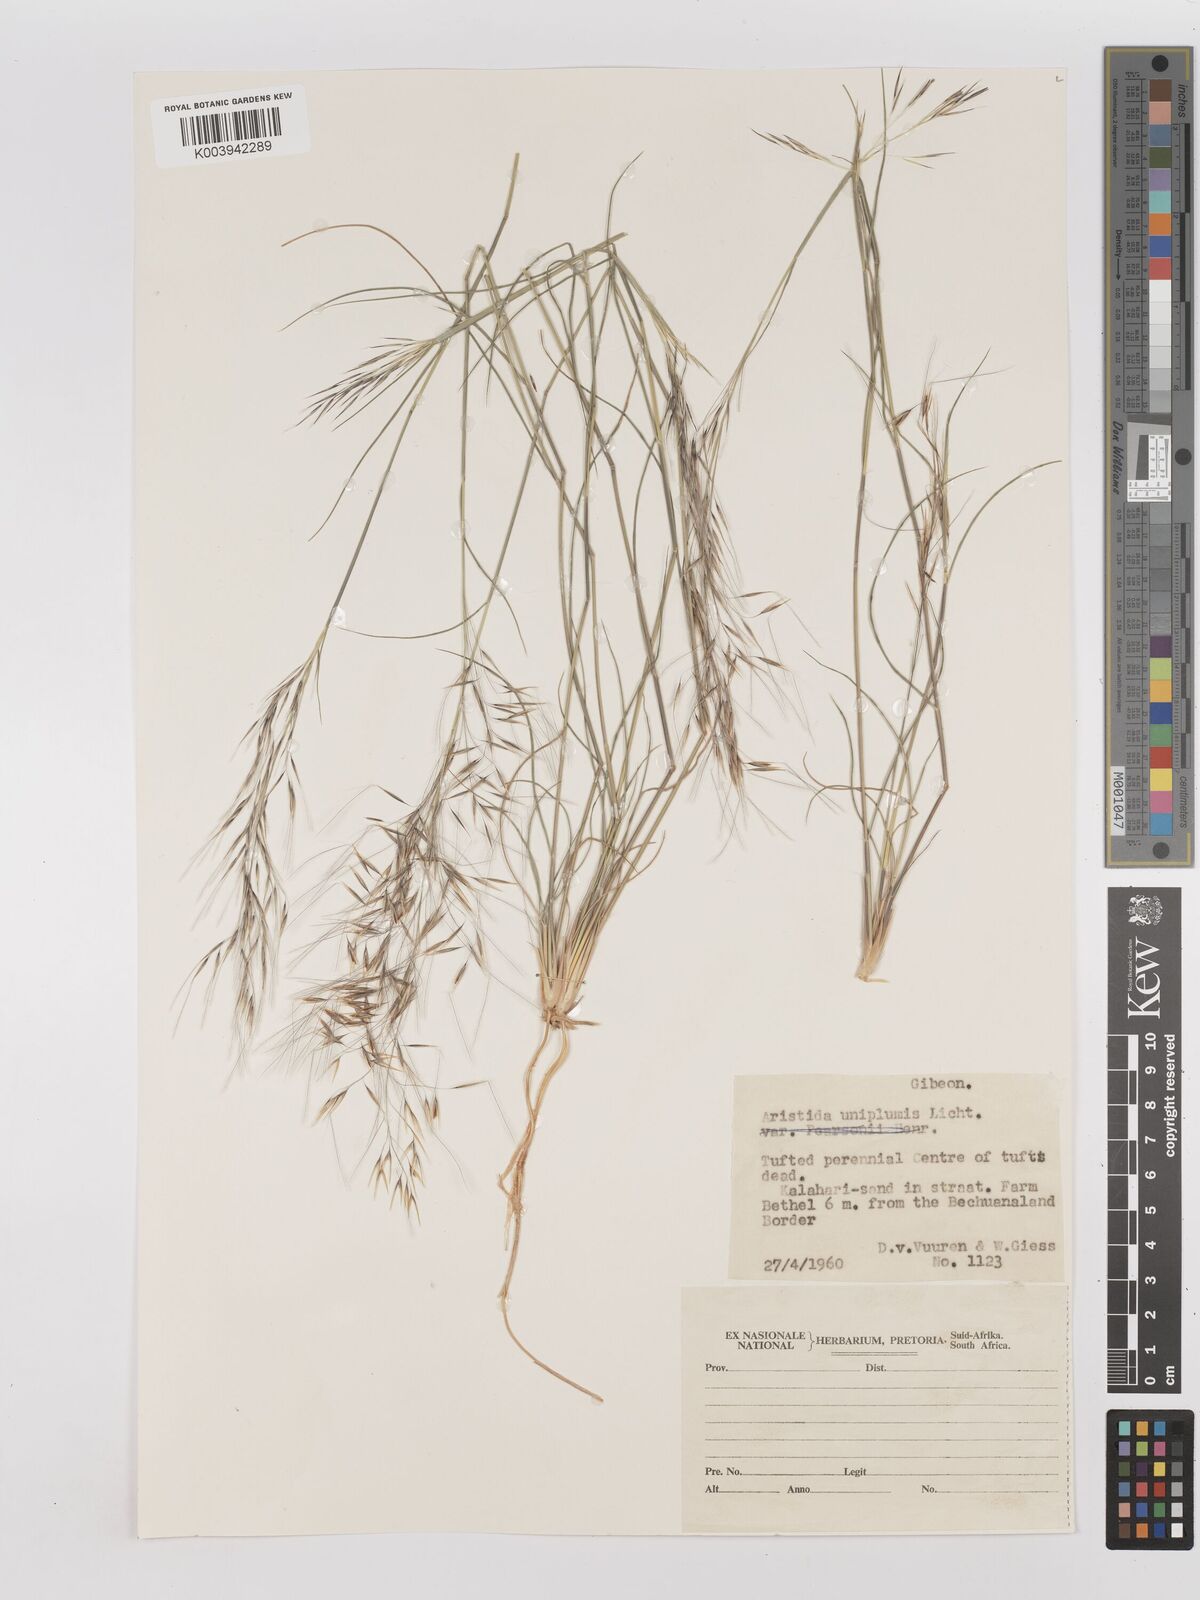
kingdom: Plantae
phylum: Tracheophyta
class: Liliopsida
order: Poales
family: Poaceae
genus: Stipagrostis
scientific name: Stipagrostis uniplumis
